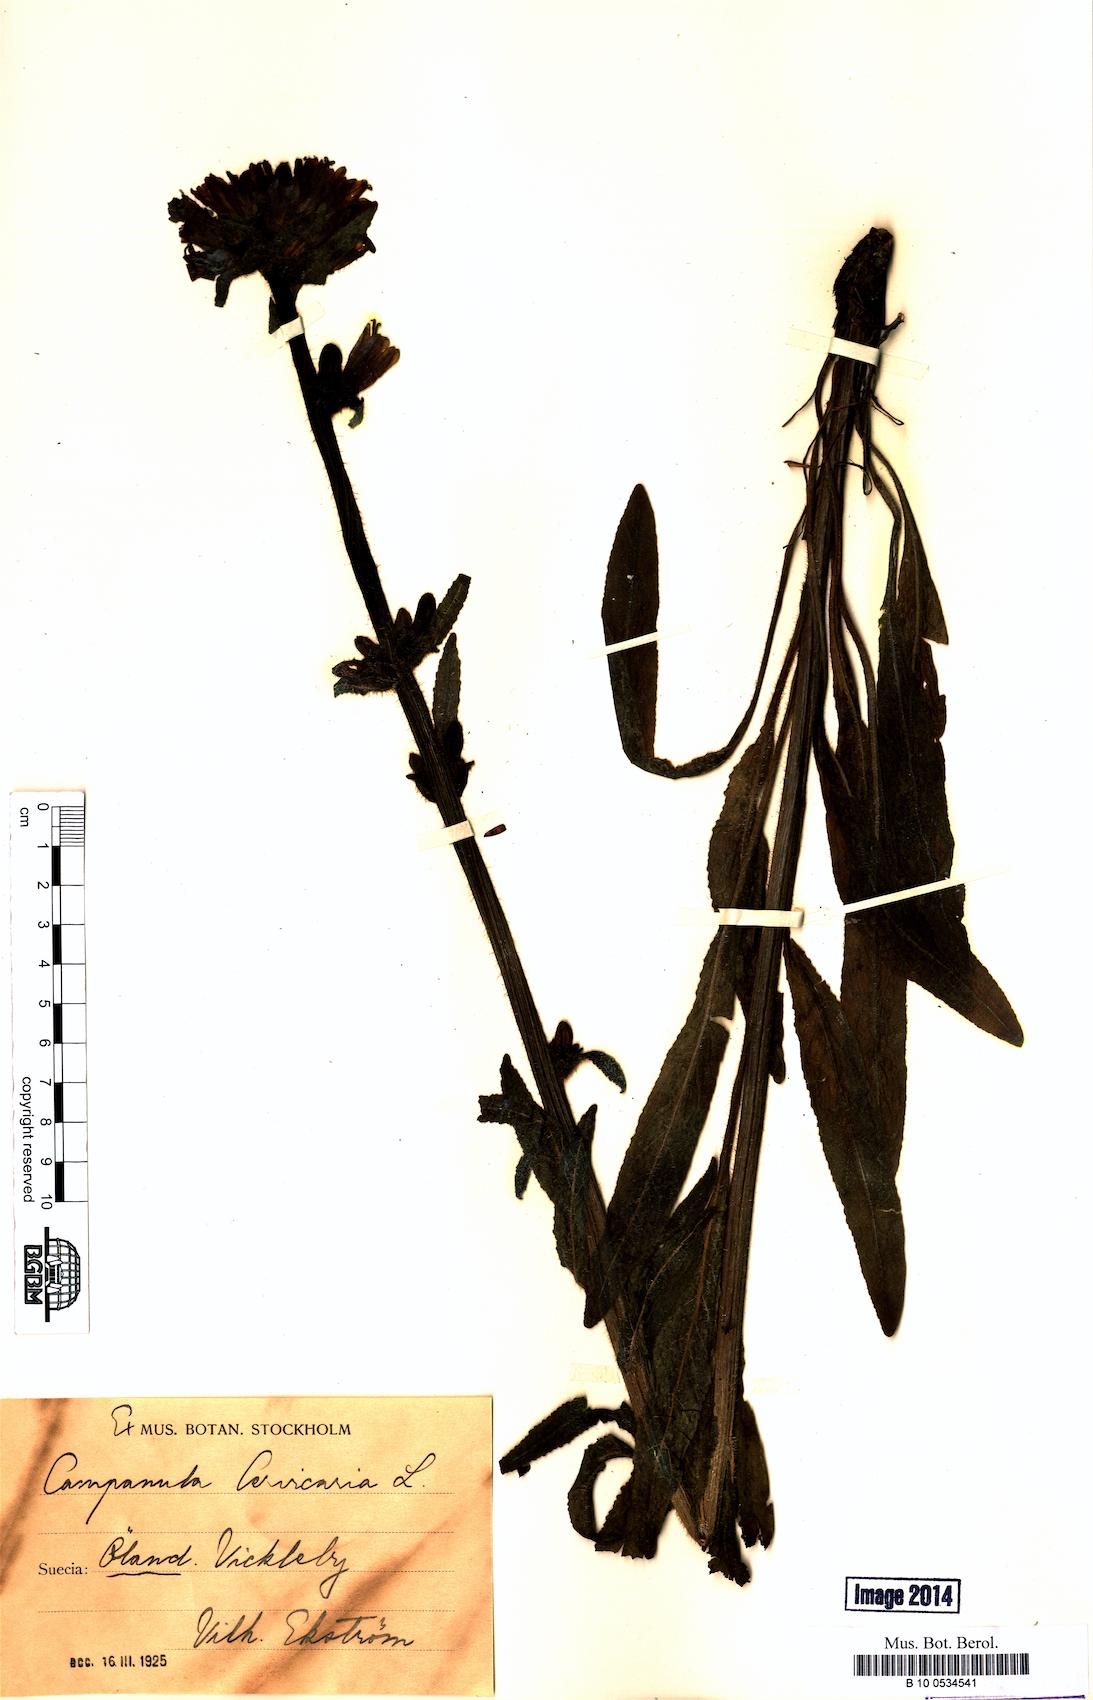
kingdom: Plantae
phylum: Tracheophyta
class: Magnoliopsida
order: Asterales
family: Campanulaceae
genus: Campanula
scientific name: Campanula cervicaria
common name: Bristly bellflower
